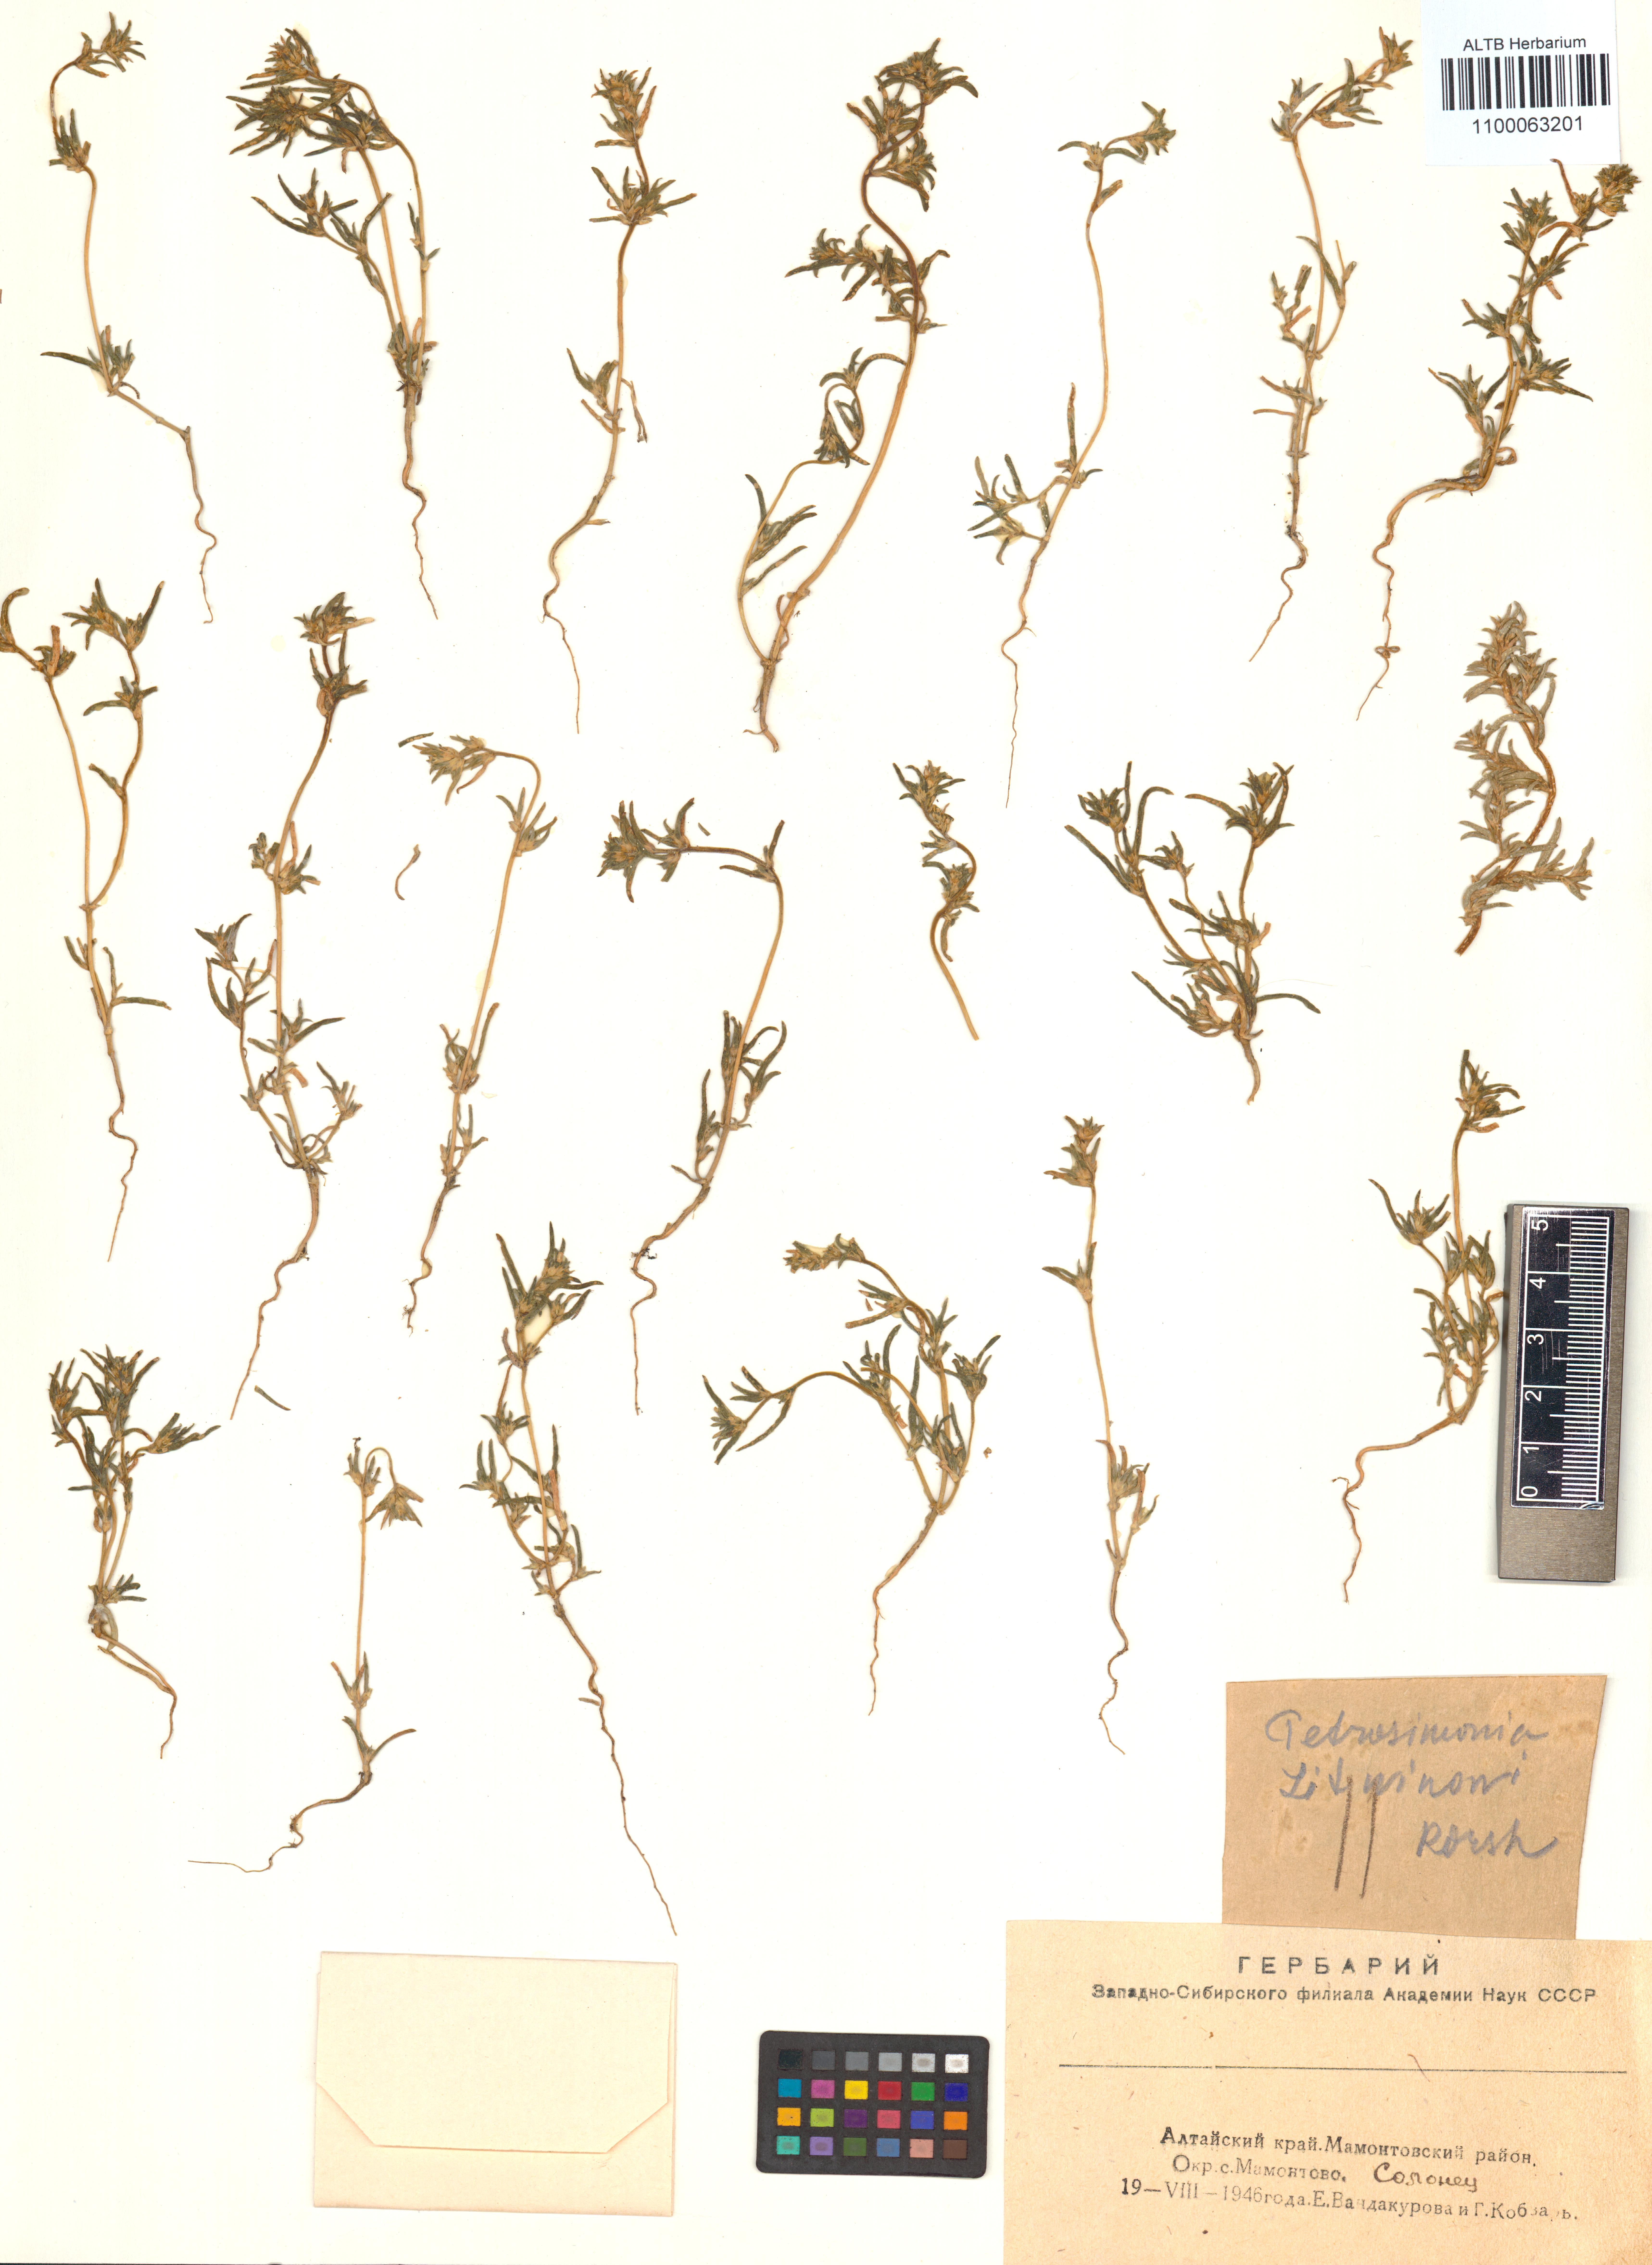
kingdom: Plantae
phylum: Tracheophyta
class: Magnoliopsida
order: Caryophyllales
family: Amaranthaceae
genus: Petrosimonia
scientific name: Petrosimonia litvinowi
